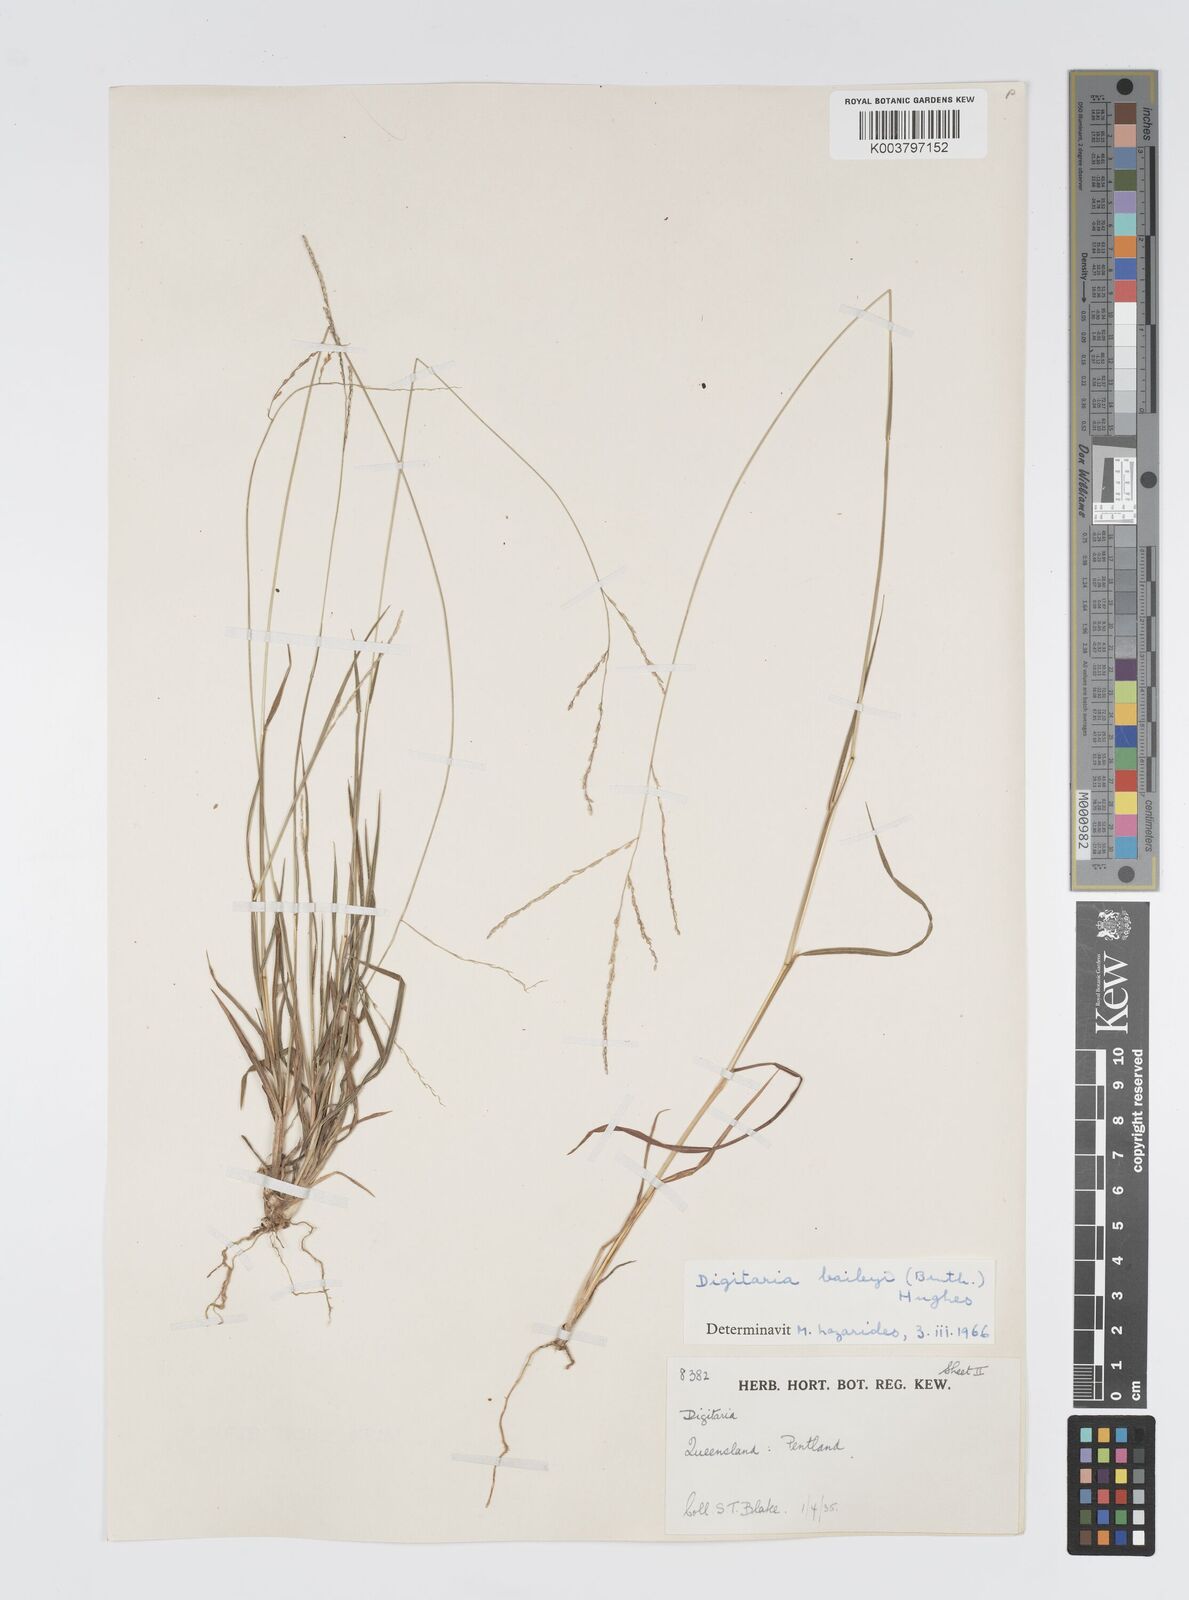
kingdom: Plantae
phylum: Tracheophyta
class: Liliopsida
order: Poales
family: Poaceae
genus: Digitaria
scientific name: Digitaria spec
